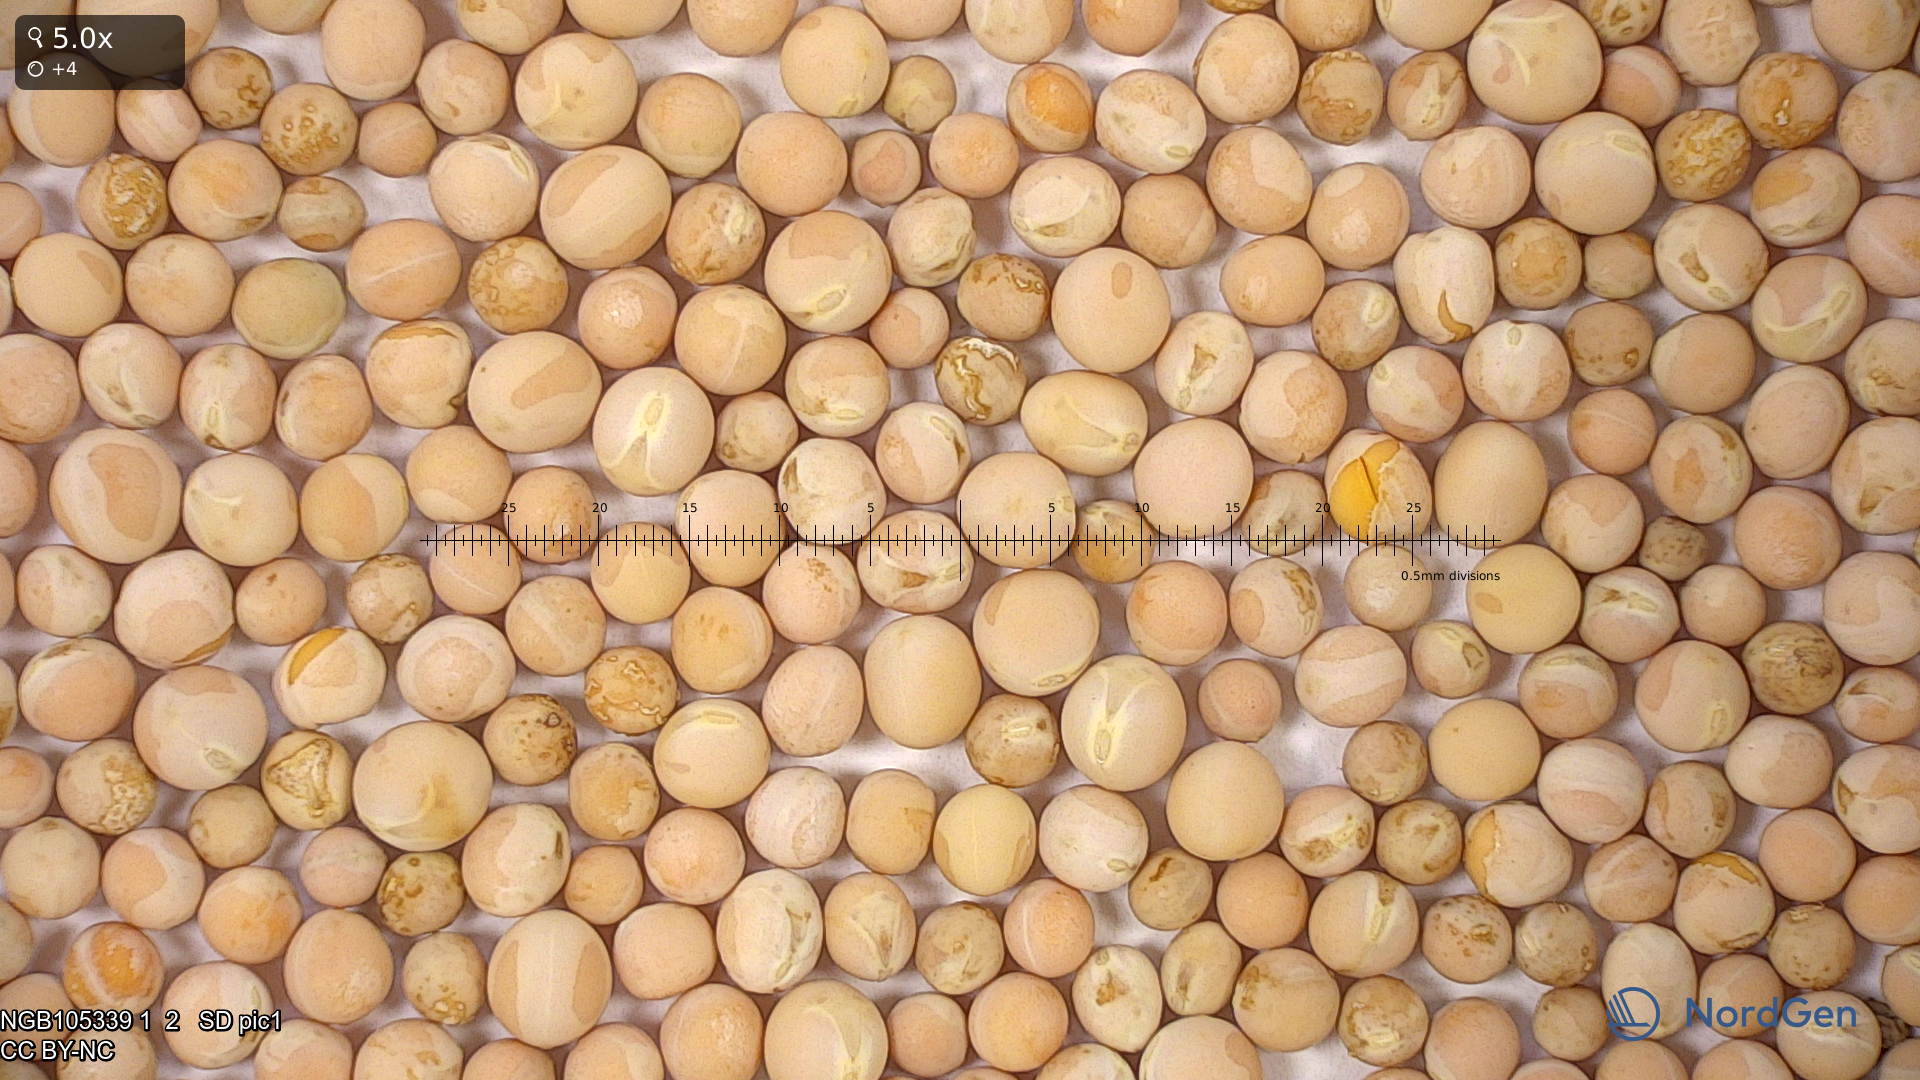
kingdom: Plantae
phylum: Tracheophyta
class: Magnoliopsida
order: Fabales
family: Fabaceae
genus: Lathyrus
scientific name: Lathyrus oleraceus
